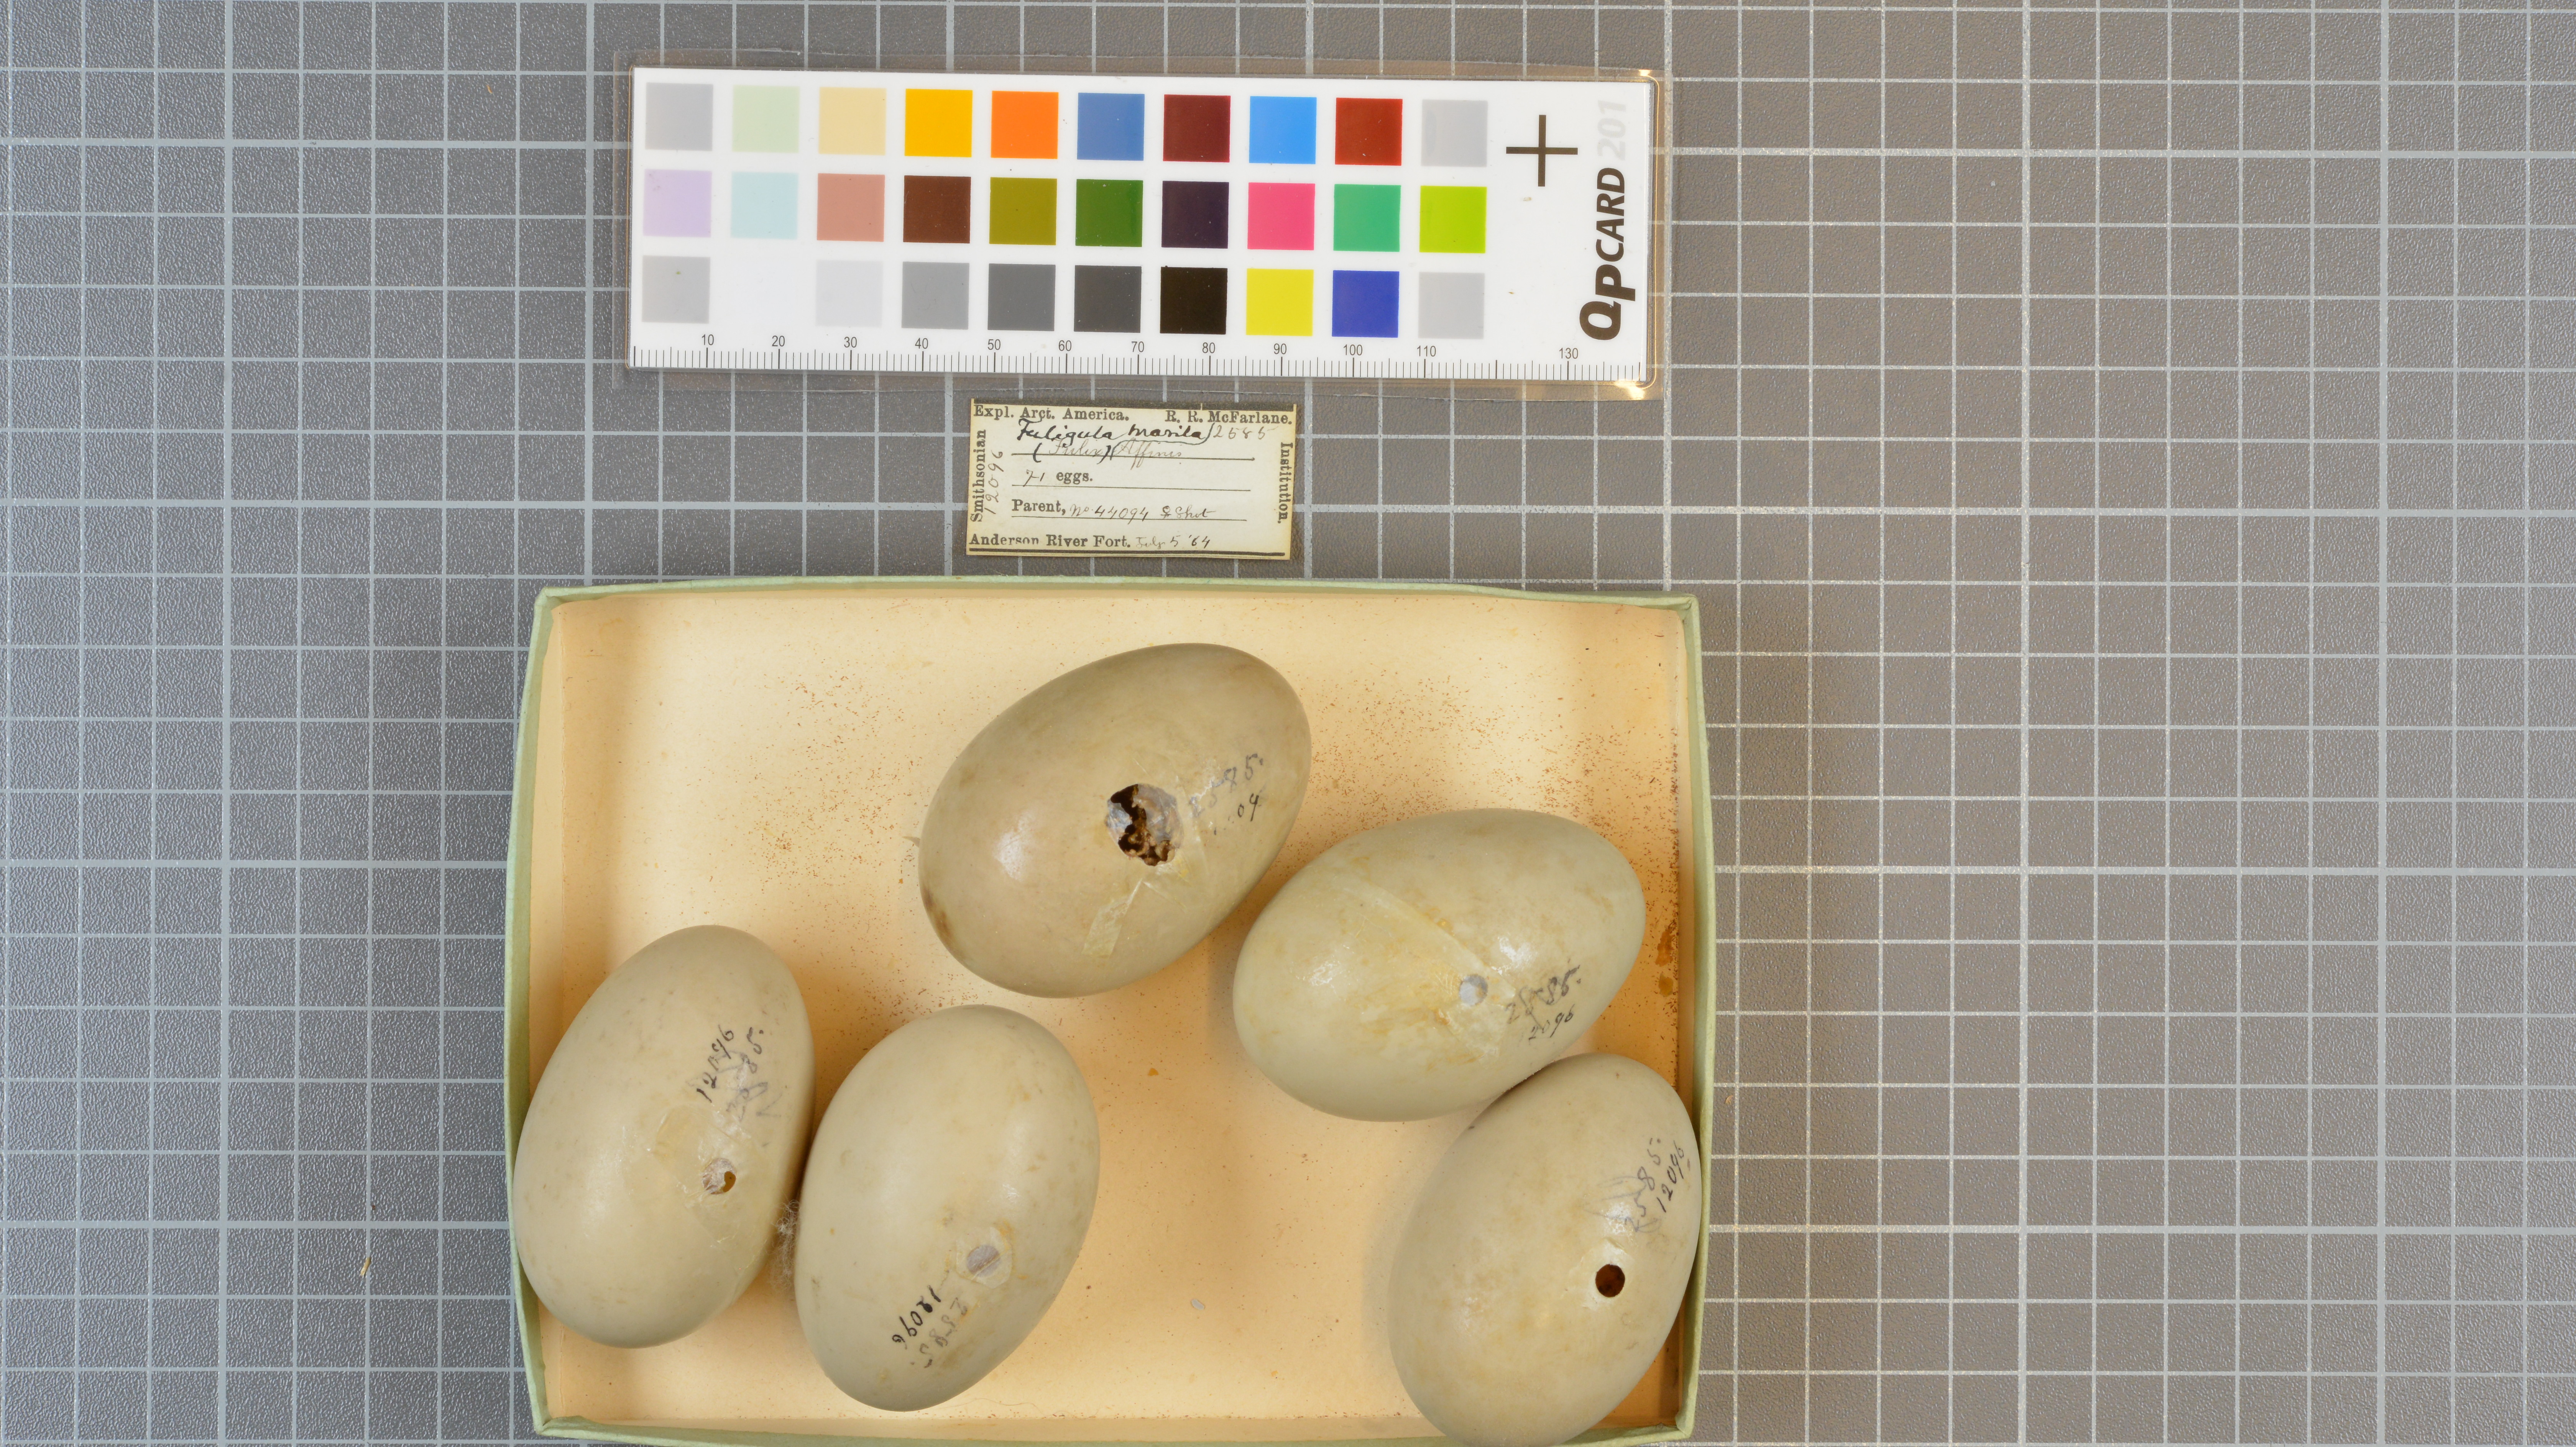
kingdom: Animalia
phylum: Chordata
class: Aves
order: Anseriformes
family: Anatidae
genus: Aythya
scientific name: Aythya marila
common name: Greater scaup
